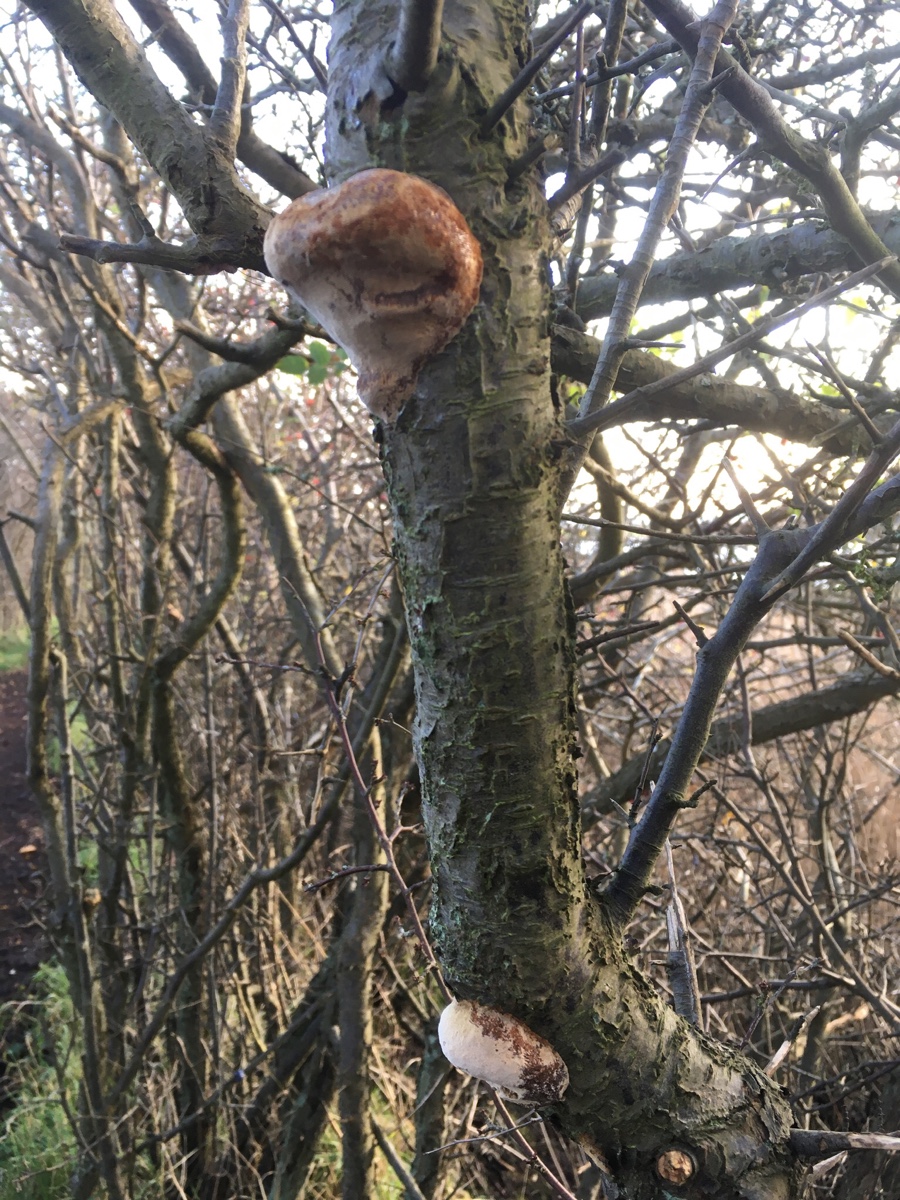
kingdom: Fungi
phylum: Basidiomycota
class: Agaricomycetes
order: Hymenochaetales
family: Hymenochaetaceae
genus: Phellinus
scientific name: Phellinus pomaceus
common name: blomme-ildporesvamp
